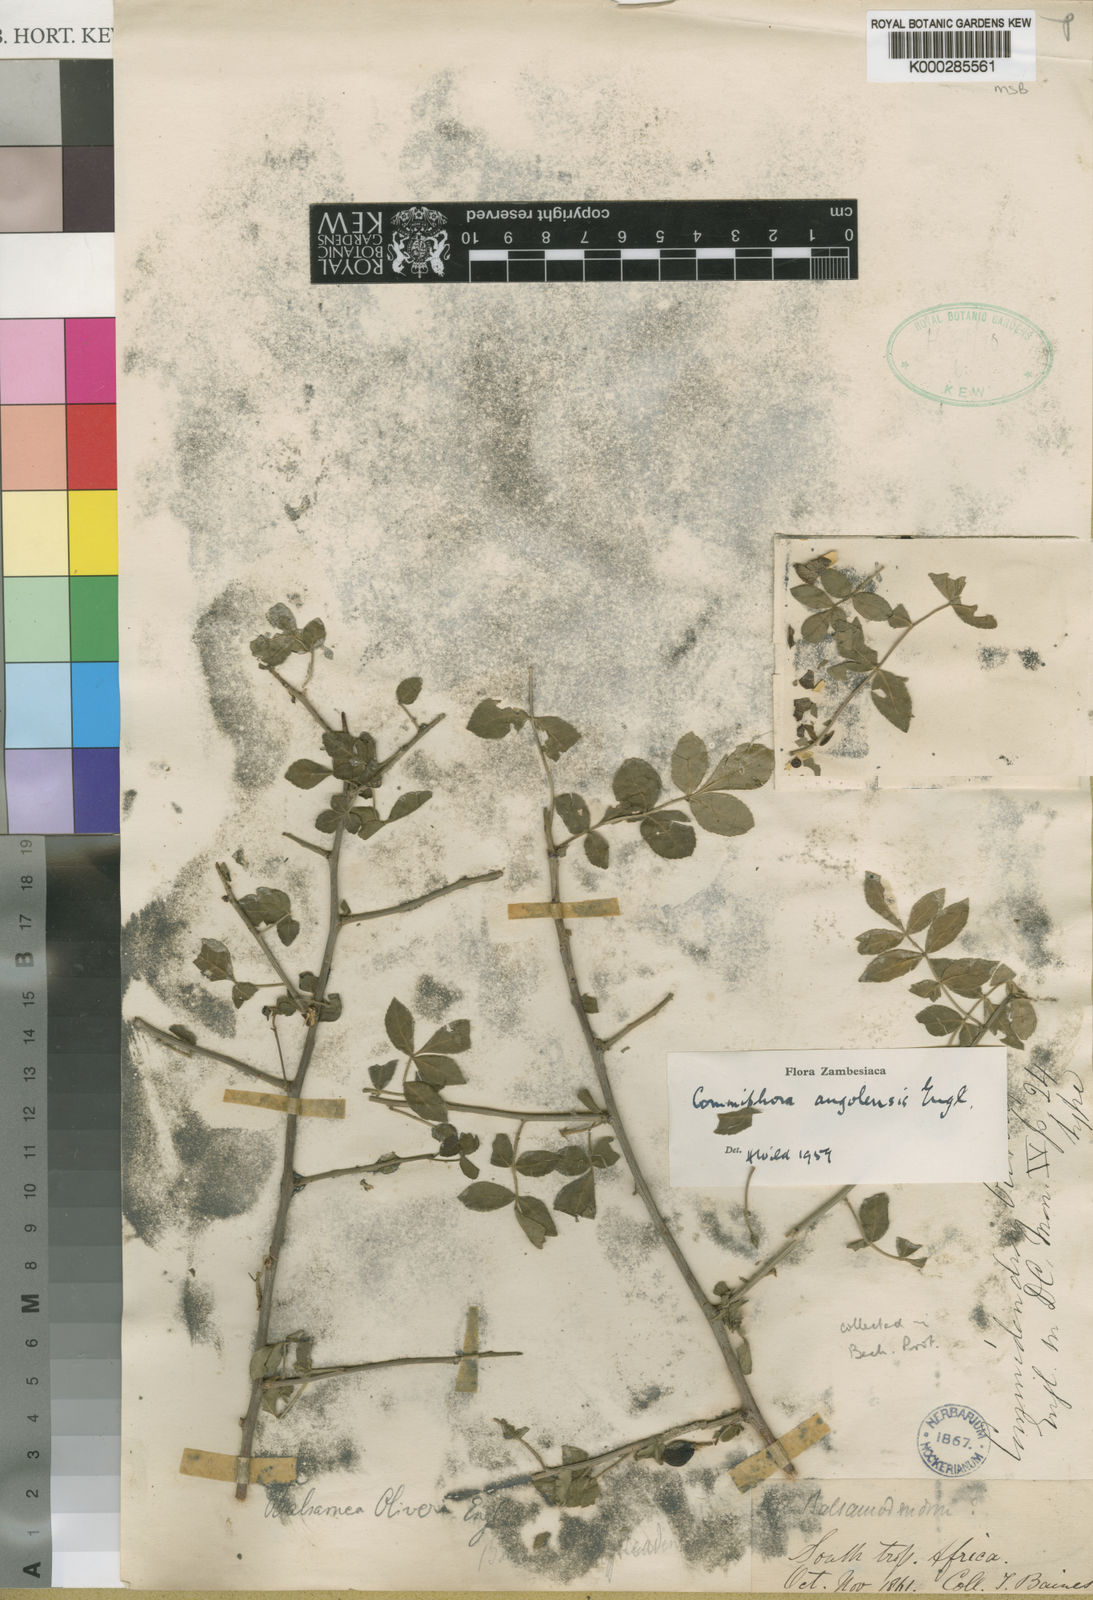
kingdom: Plantae
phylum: Tracheophyta
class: Magnoliopsida
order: Sapindales
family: Burseraceae
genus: Commiphora
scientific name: Commiphora angolensis
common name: Poison-grub
